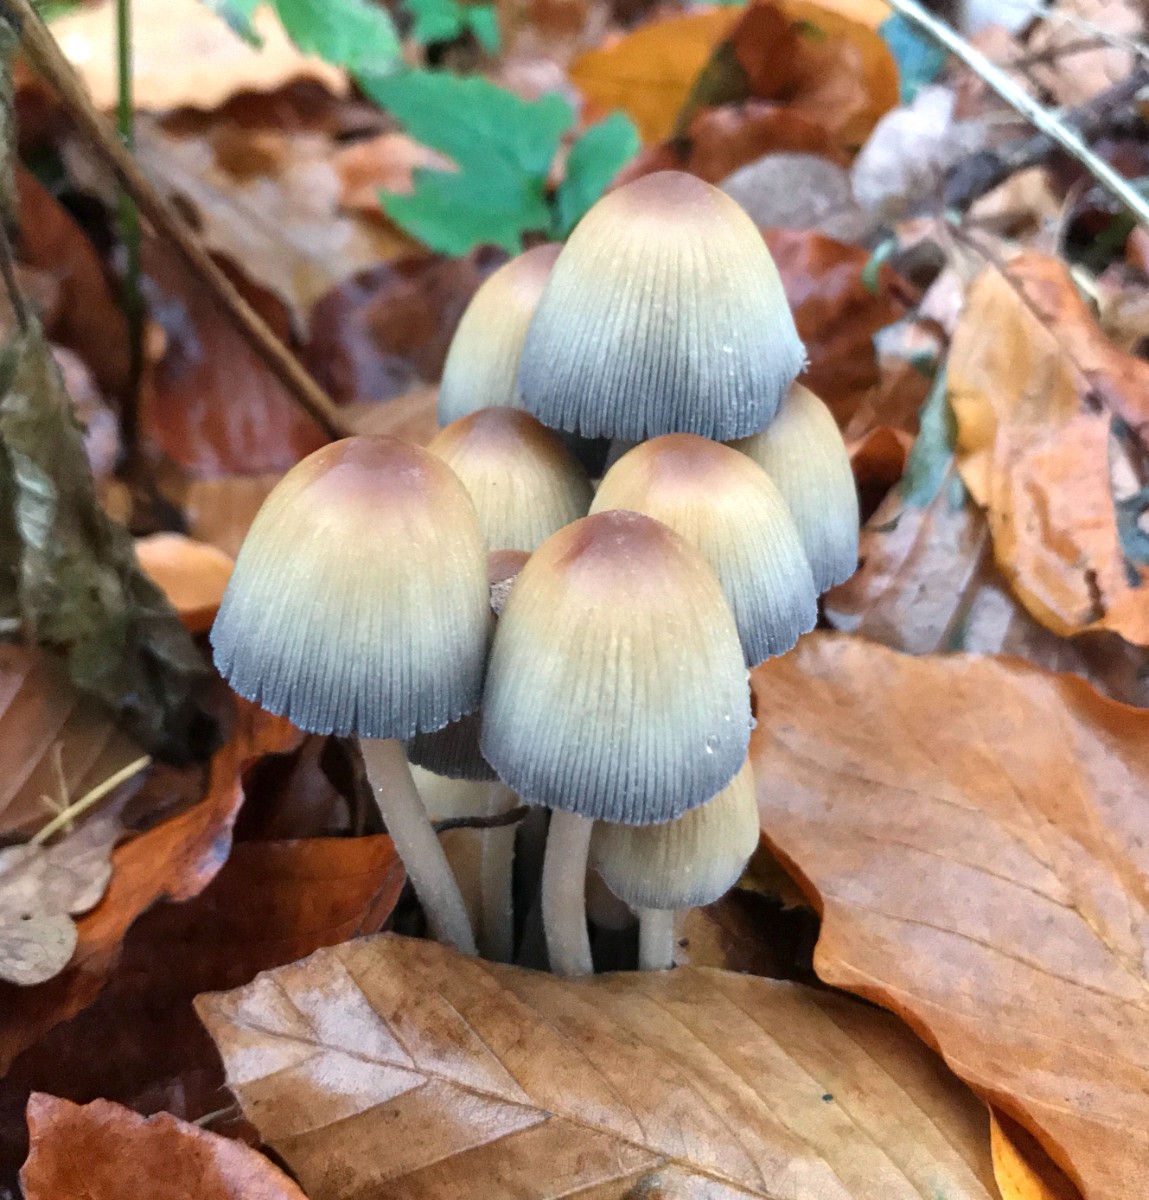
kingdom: Fungi
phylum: Basidiomycota
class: Agaricomycetes
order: Agaricales
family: Psathyrellaceae
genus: Coprinellus
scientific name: Coprinellus micaceus
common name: glimmer-blækhat
